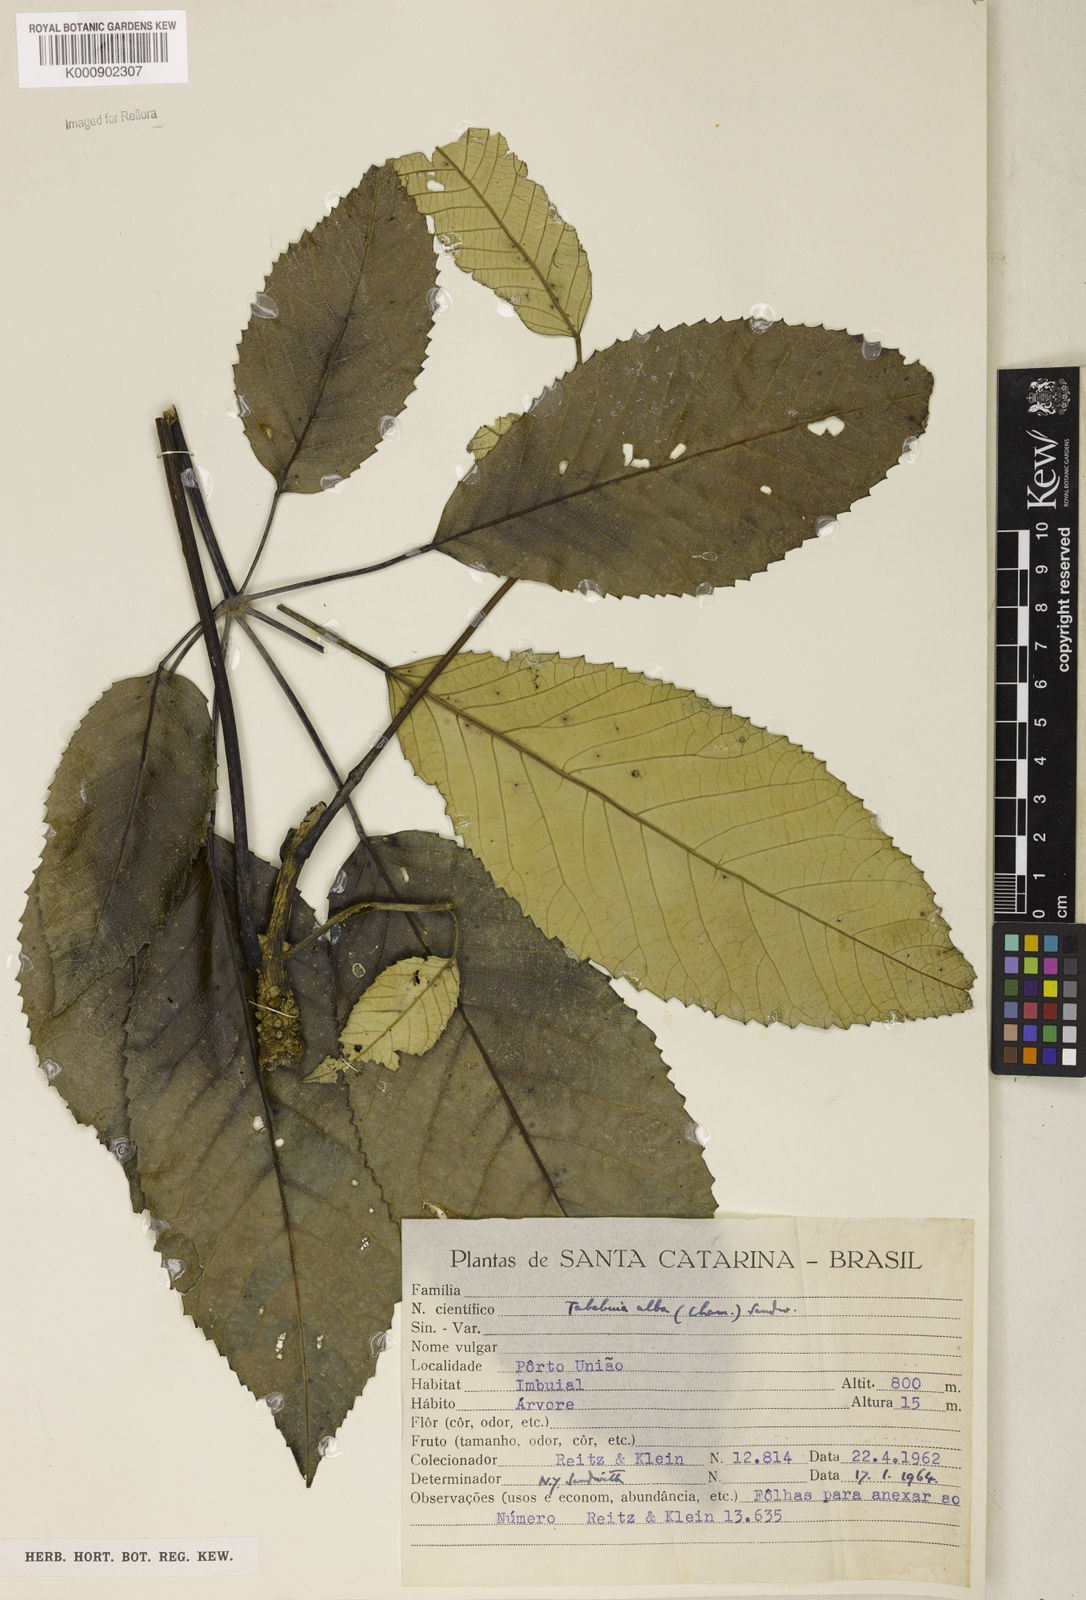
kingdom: Plantae
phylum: Tracheophyta
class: Magnoliopsida
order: Lamiales
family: Bignoniaceae
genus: Handroanthus
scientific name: Handroanthus albus
